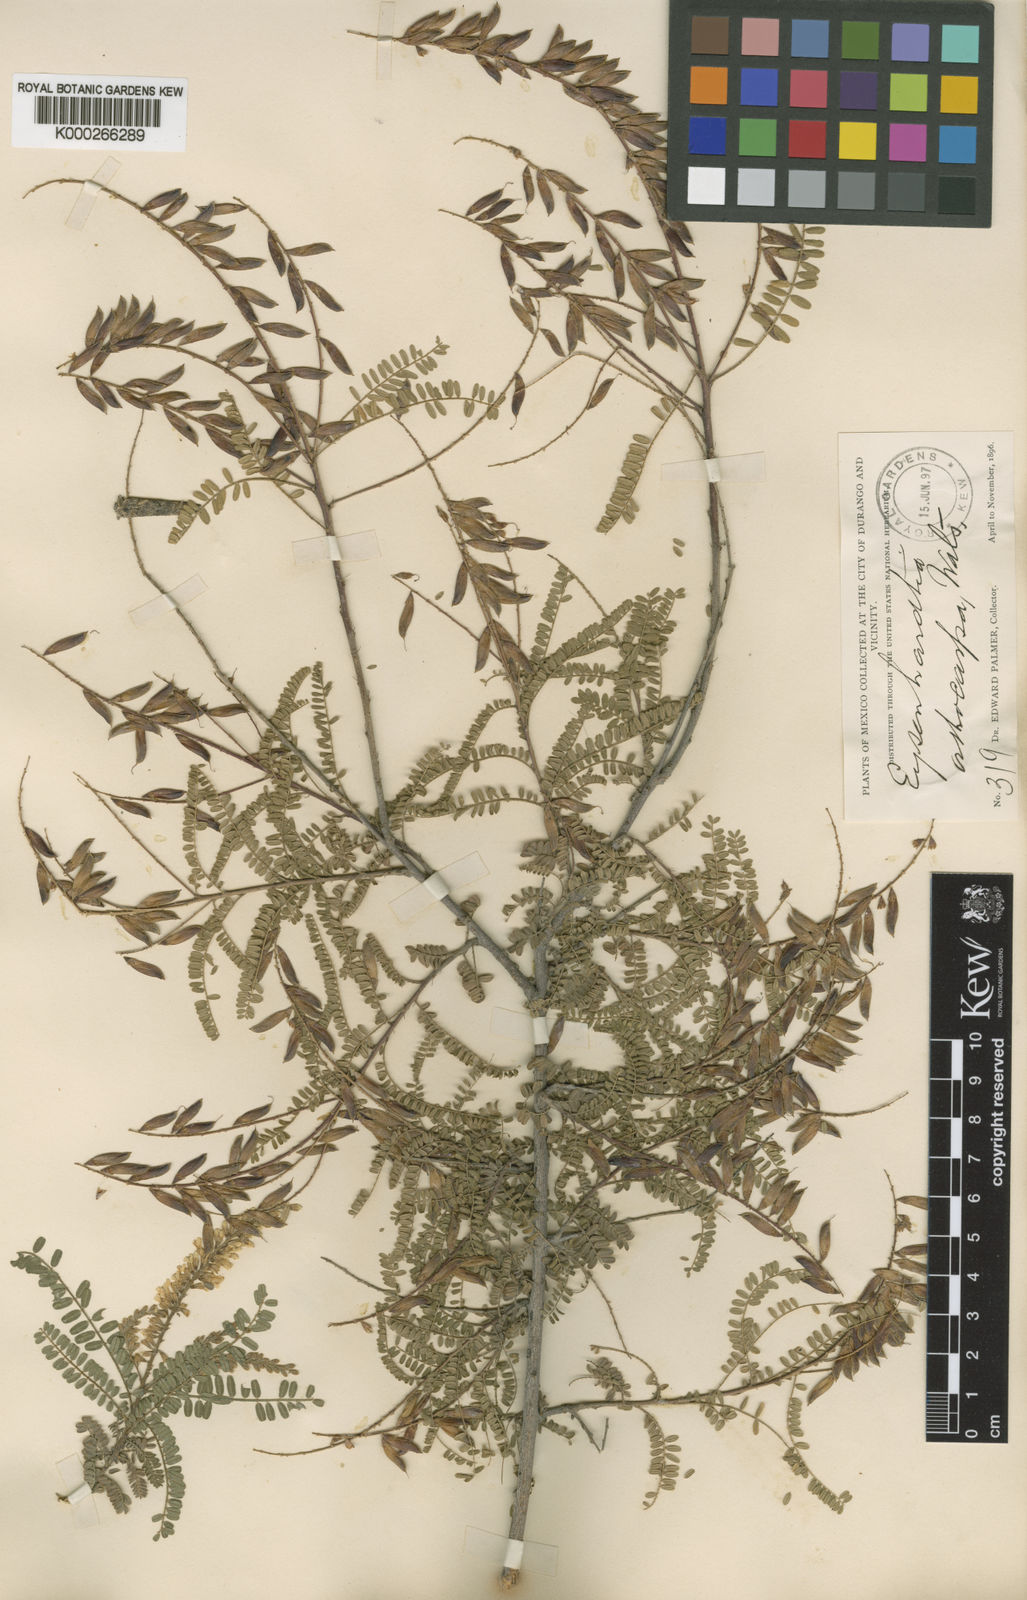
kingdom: Plantae
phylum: Tracheophyta
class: Magnoliopsida
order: Fabales
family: Fabaceae
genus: Eysenhardtia
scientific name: Eysenhardtia polystachya
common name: Kidneywood
